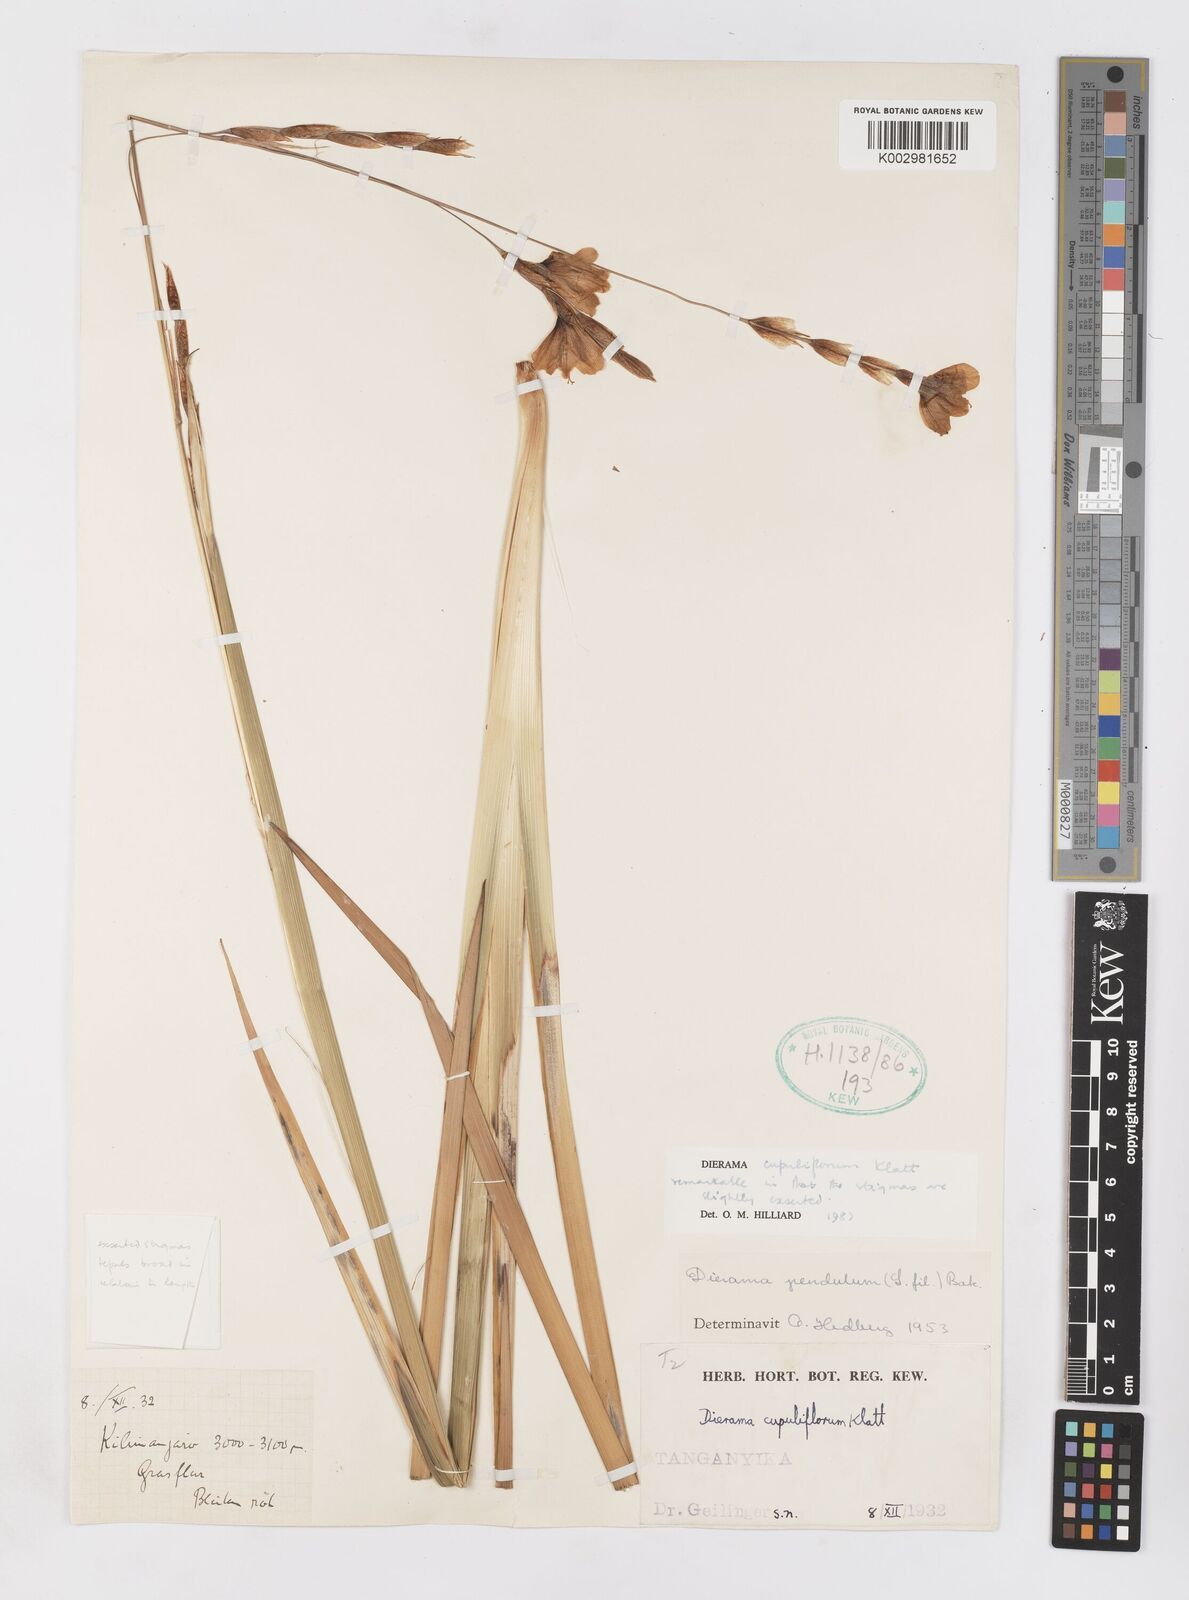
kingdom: Plantae
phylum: Tracheophyta
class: Liliopsida
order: Asparagales
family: Iridaceae
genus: Dierama
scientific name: Dierama cupuliflorum
